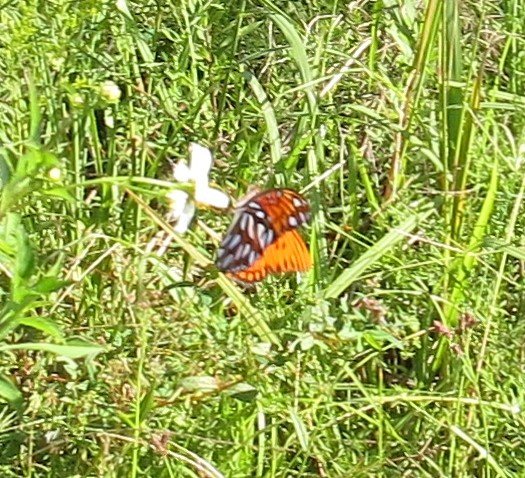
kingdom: Animalia
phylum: Arthropoda
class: Insecta
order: Lepidoptera
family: Nymphalidae
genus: Dione
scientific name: Dione vanillae
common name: Gulf Fritillary
